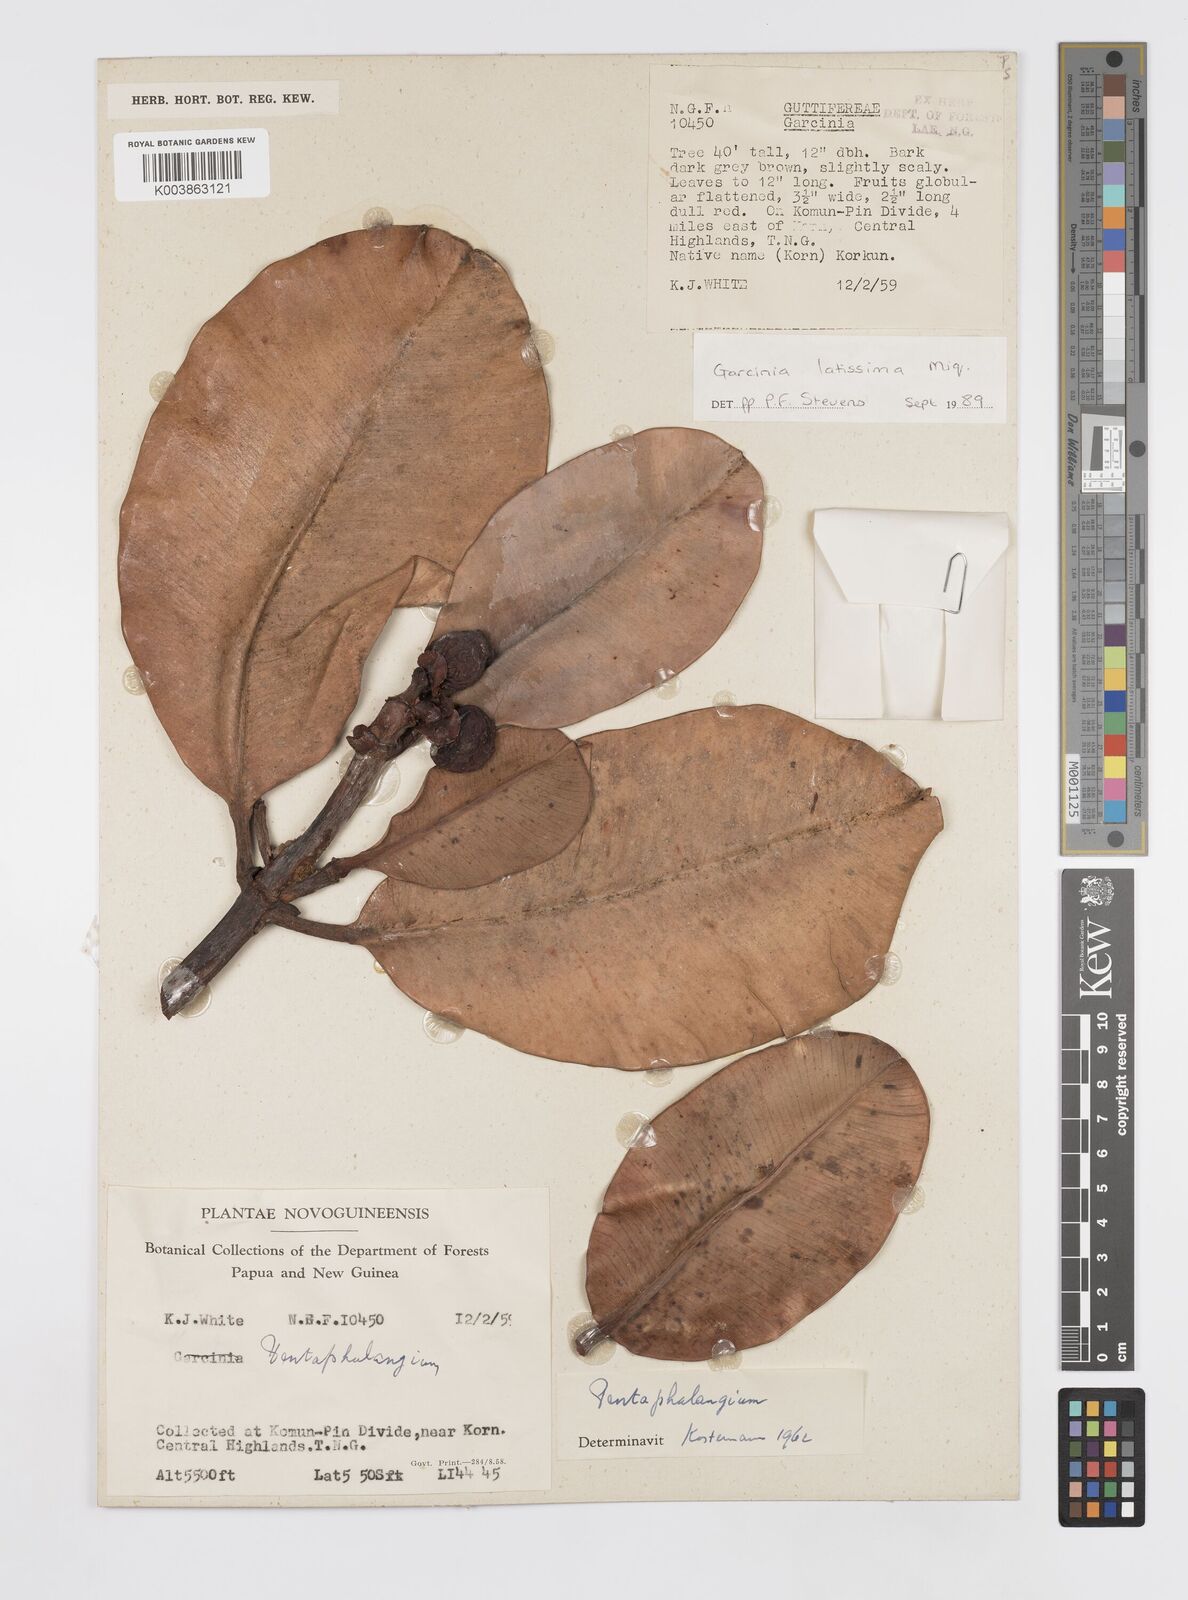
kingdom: Plantae
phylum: Tracheophyta
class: Magnoliopsida
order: Malpighiales
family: Clusiaceae
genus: Garcinia
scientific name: Garcinia latissima
